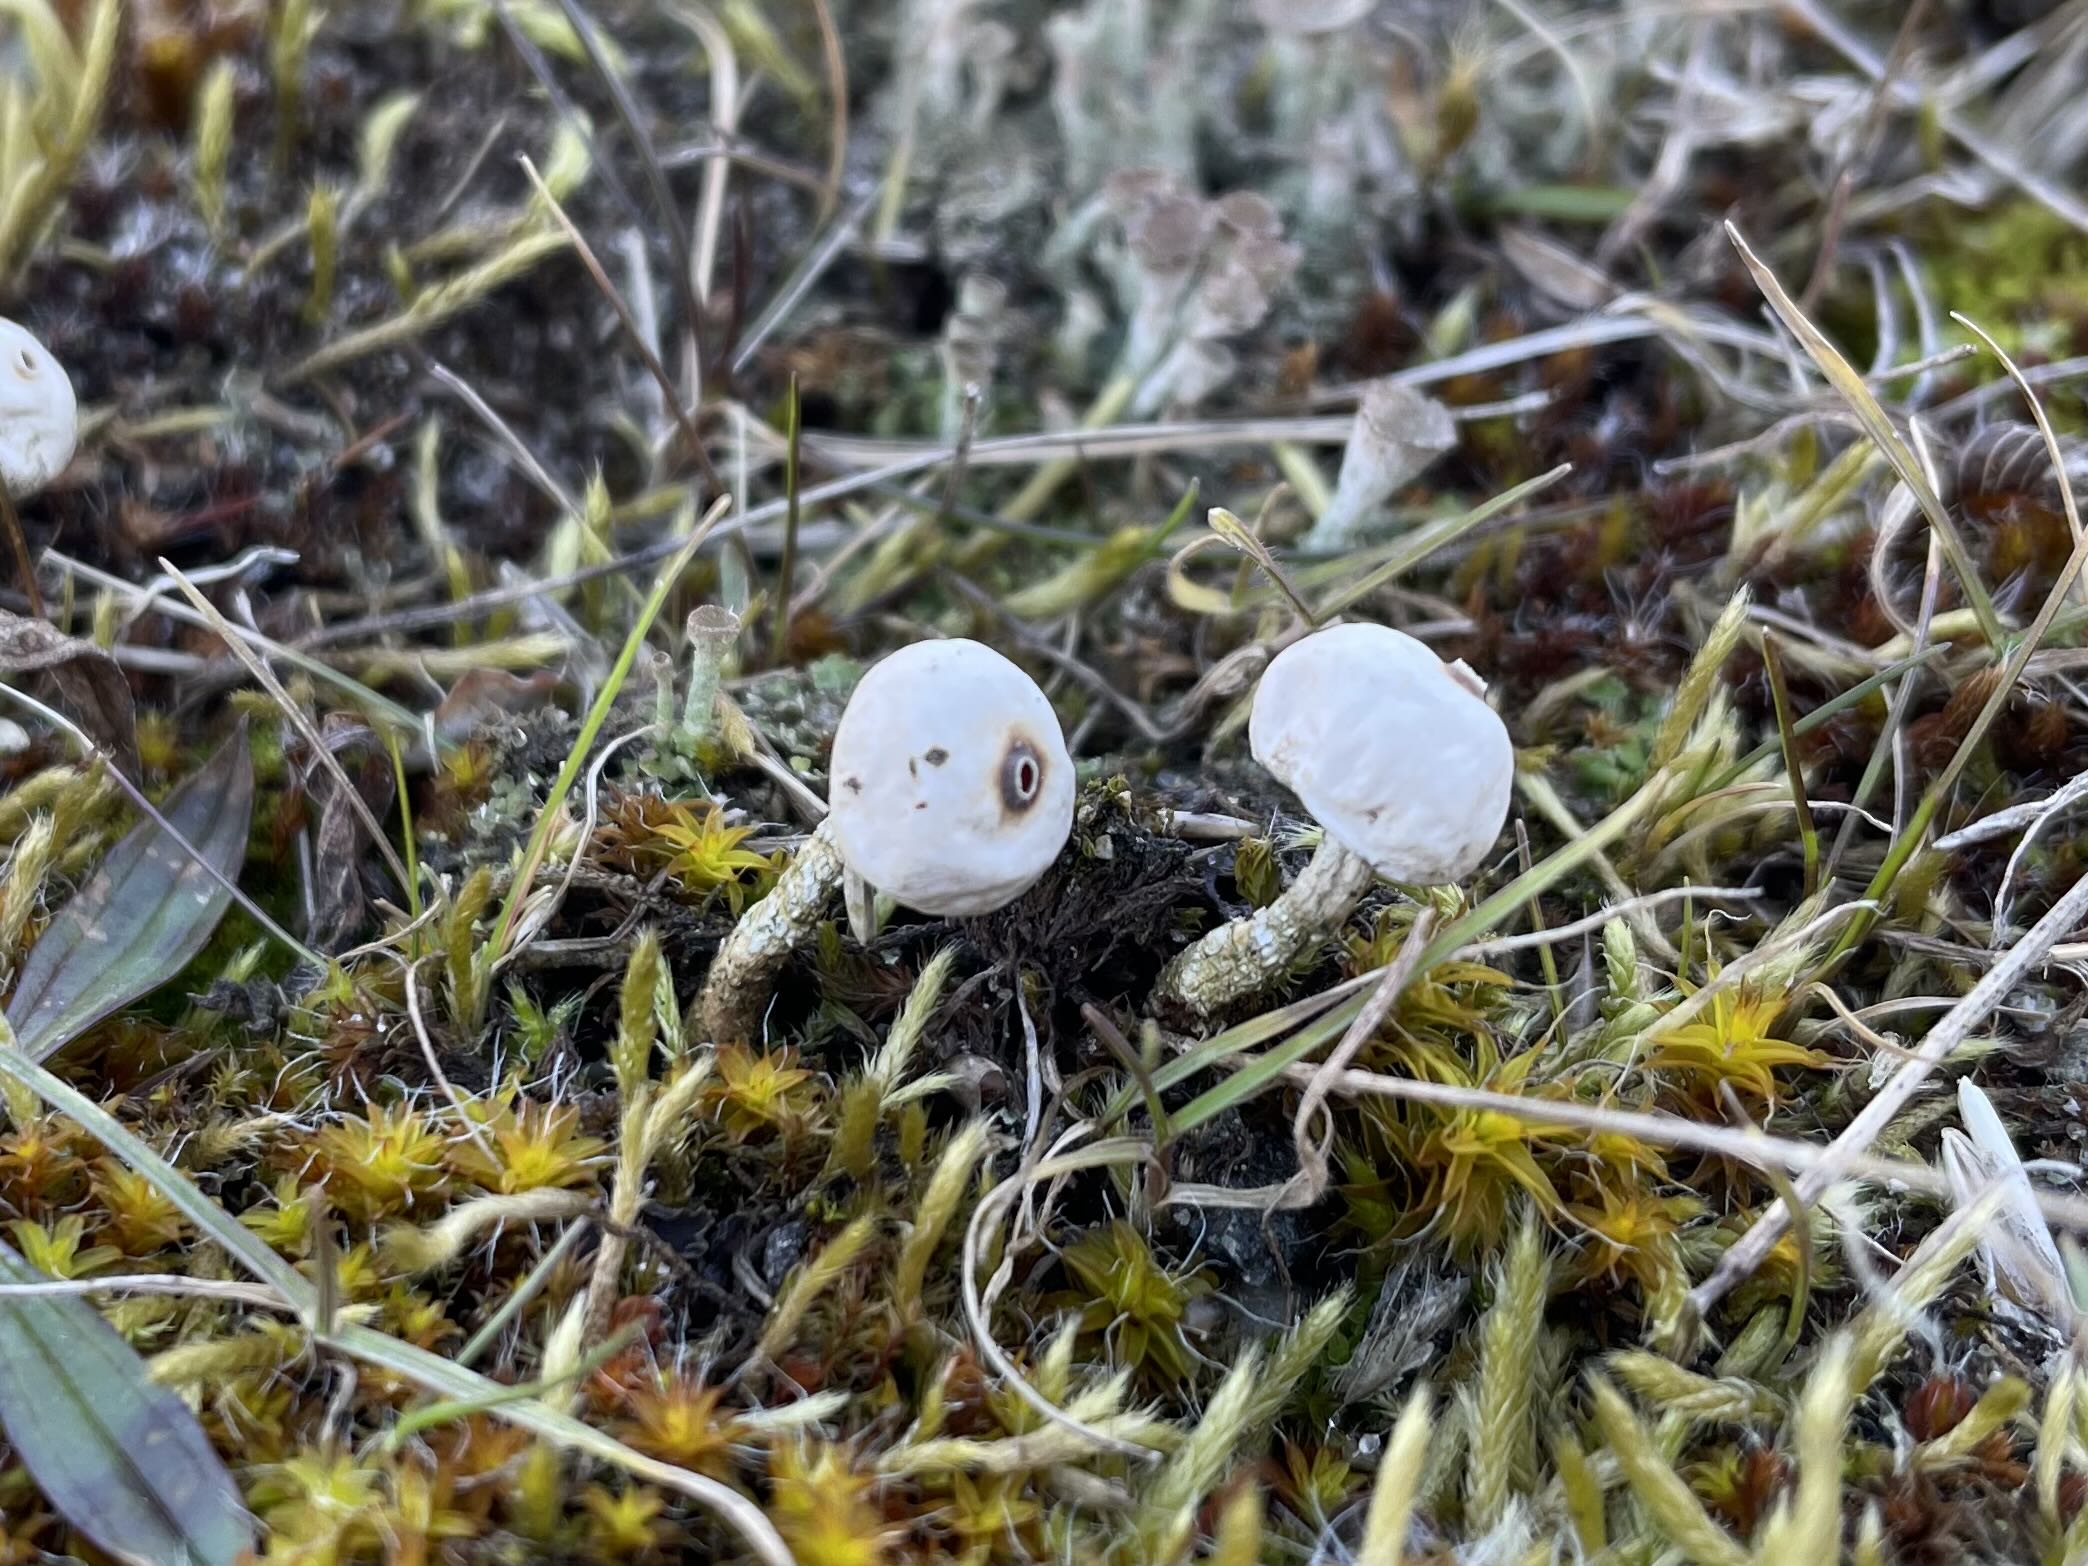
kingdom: Fungi
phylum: Basidiomycota
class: Agaricomycetes
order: Agaricales
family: Agaricaceae
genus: Tulostoma
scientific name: Tulostoma brumale
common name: vinter-stilkbovist
